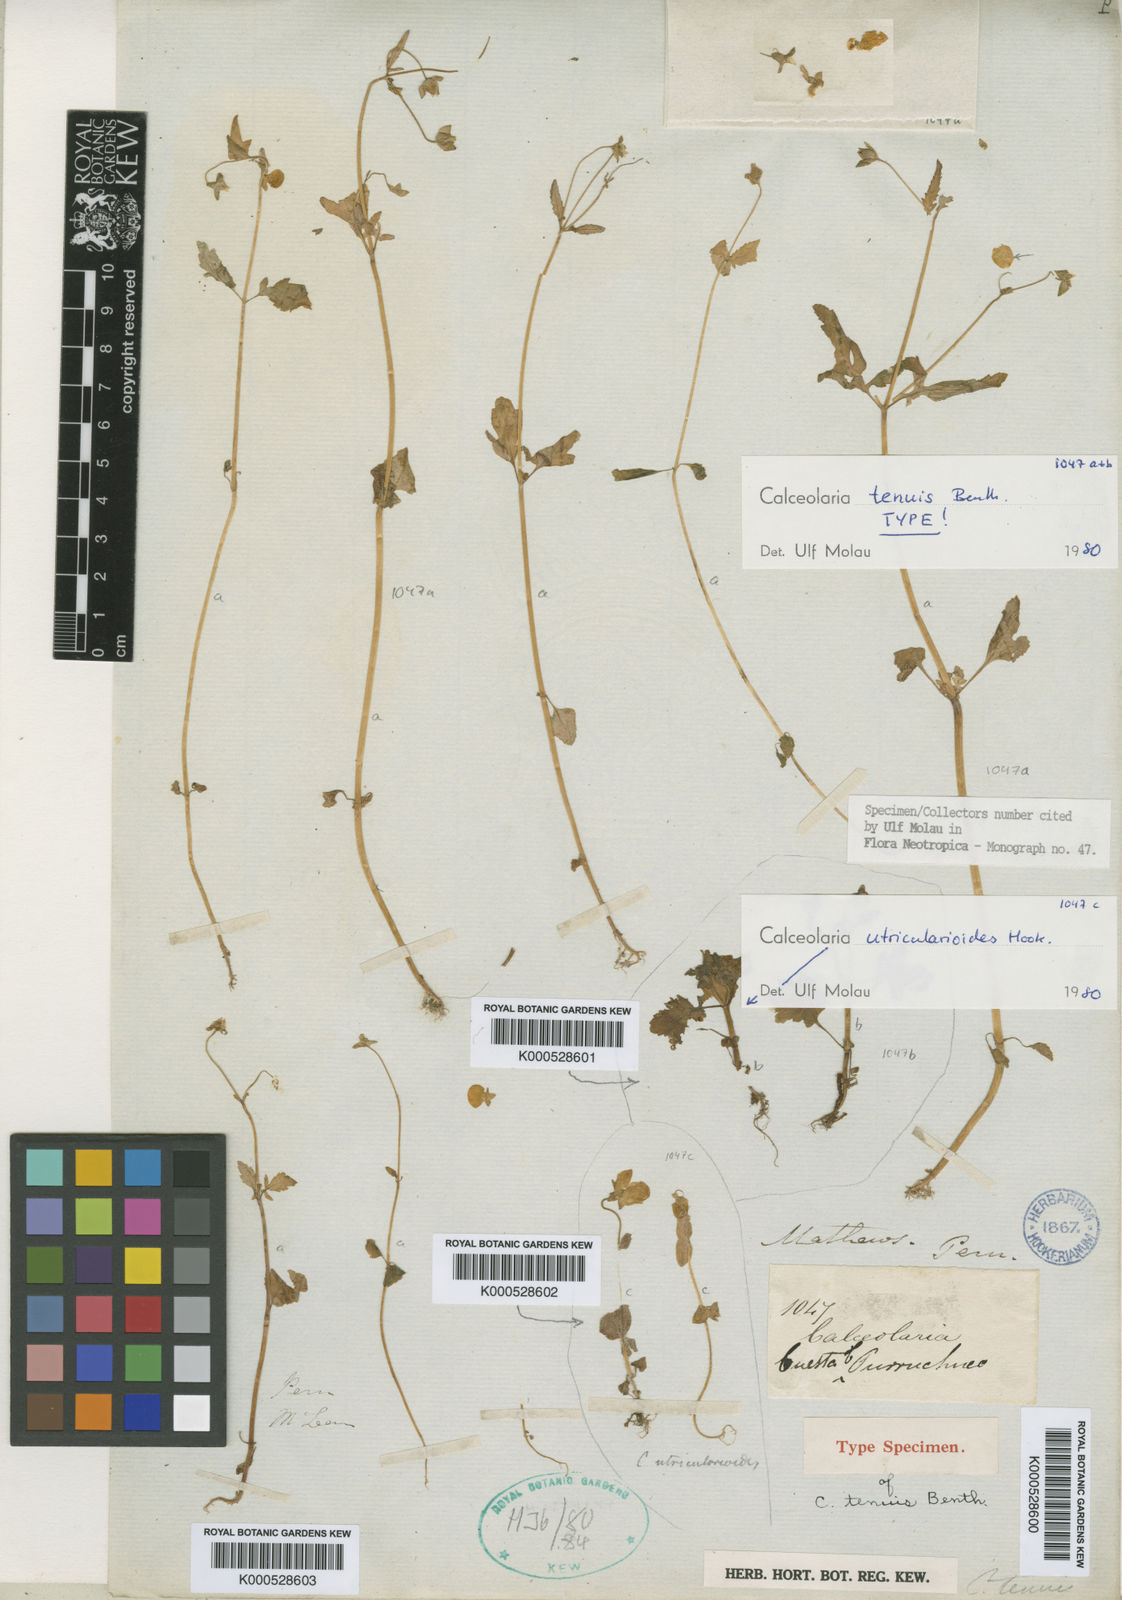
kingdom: Plantae
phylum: Tracheophyta
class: Magnoliopsida
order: Lamiales
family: Calceolariaceae
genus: Calceolaria
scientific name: Calceolaria tenuis
